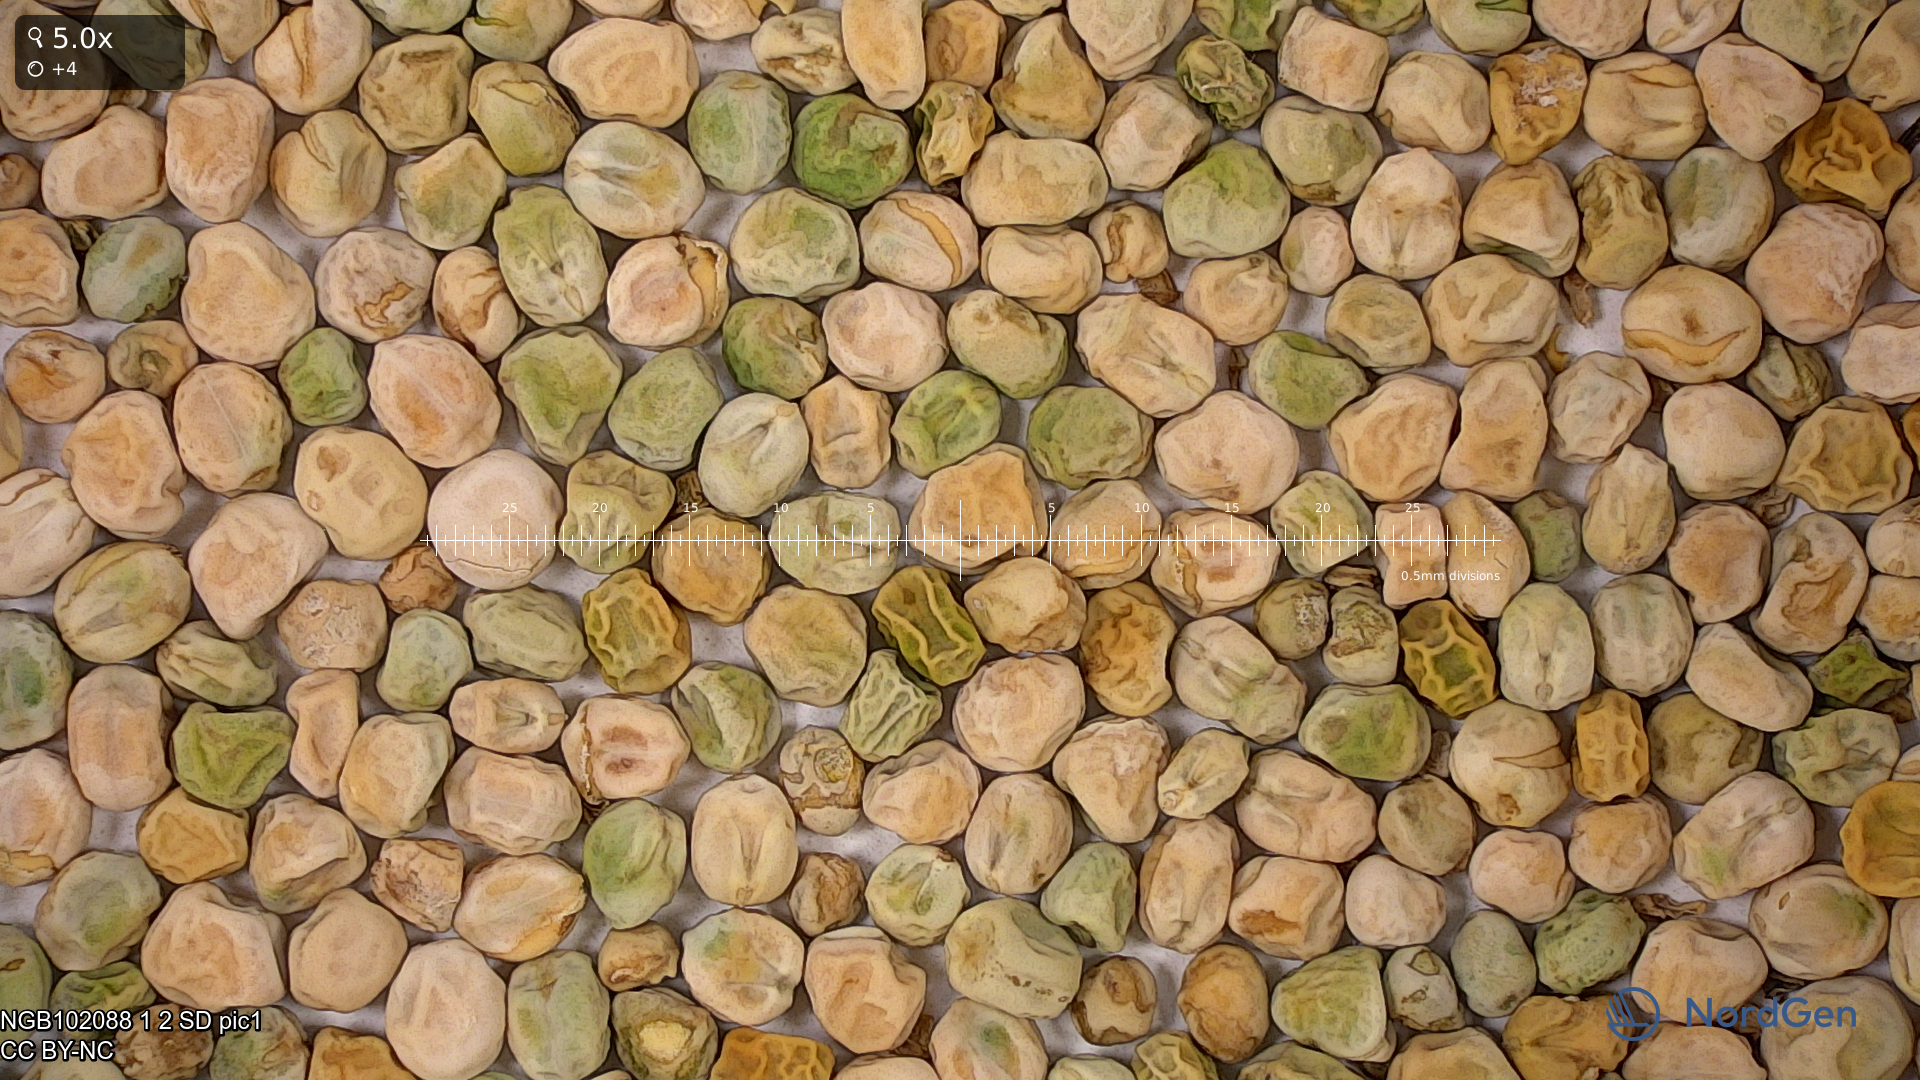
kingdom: Plantae
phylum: Tracheophyta
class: Magnoliopsida
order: Fabales
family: Fabaceae
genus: Lathyrus
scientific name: Lathyrus oleraceus
